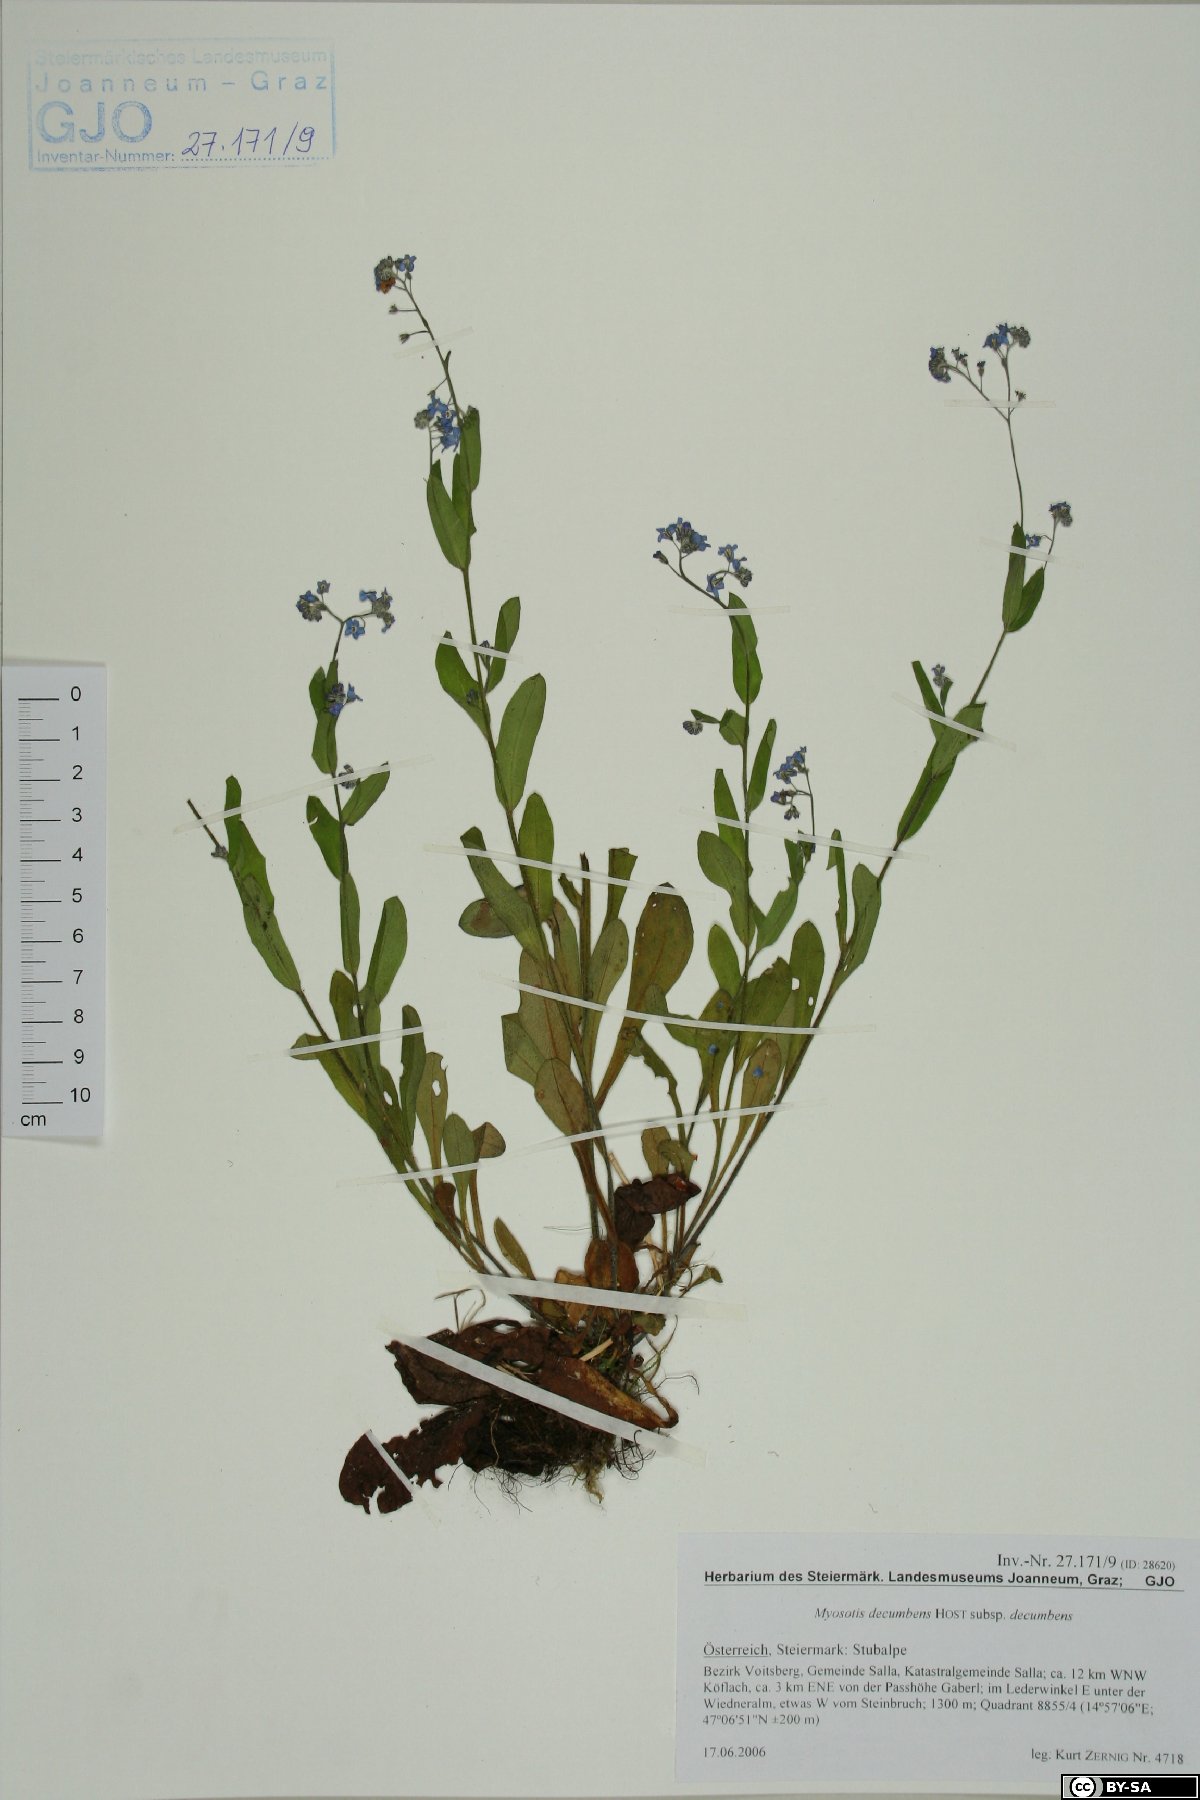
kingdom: Plantae
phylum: Tracheophyta
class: Magnoliopsida
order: Boraginales
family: Boraginaceae
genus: Myosotis
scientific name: Myosotis decumbens
